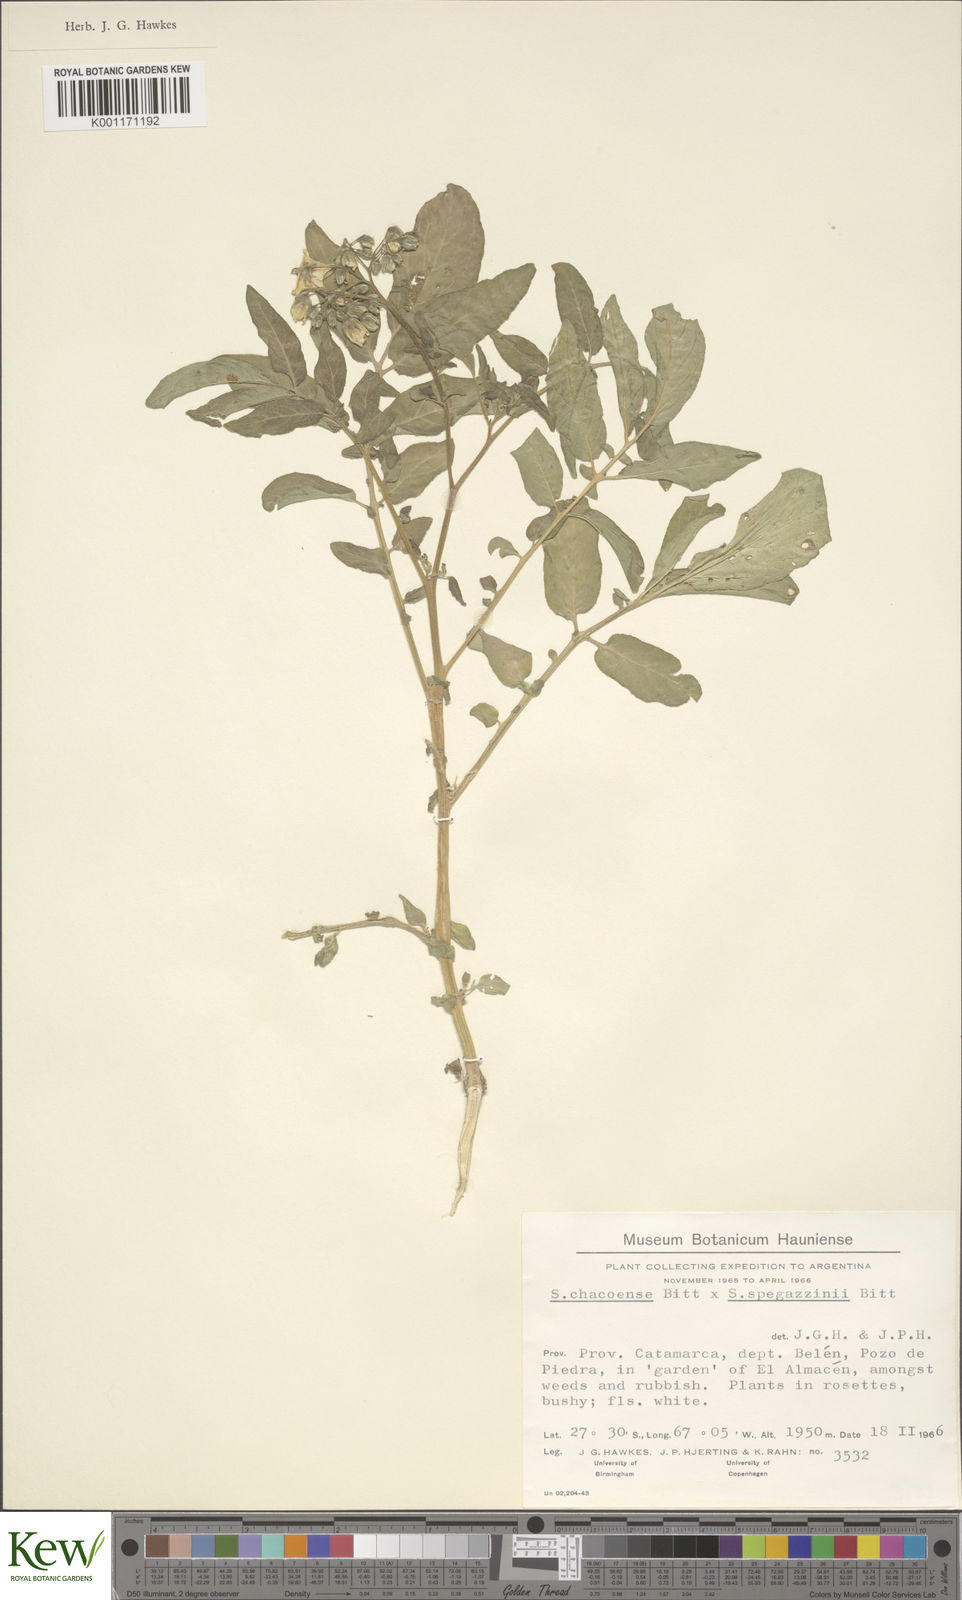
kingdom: Plantae
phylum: Tracheophyta
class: Magnoliopsida
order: Solanales
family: Solanaceae
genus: Solanum
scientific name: Solanum chacoense
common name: Chaco potato
